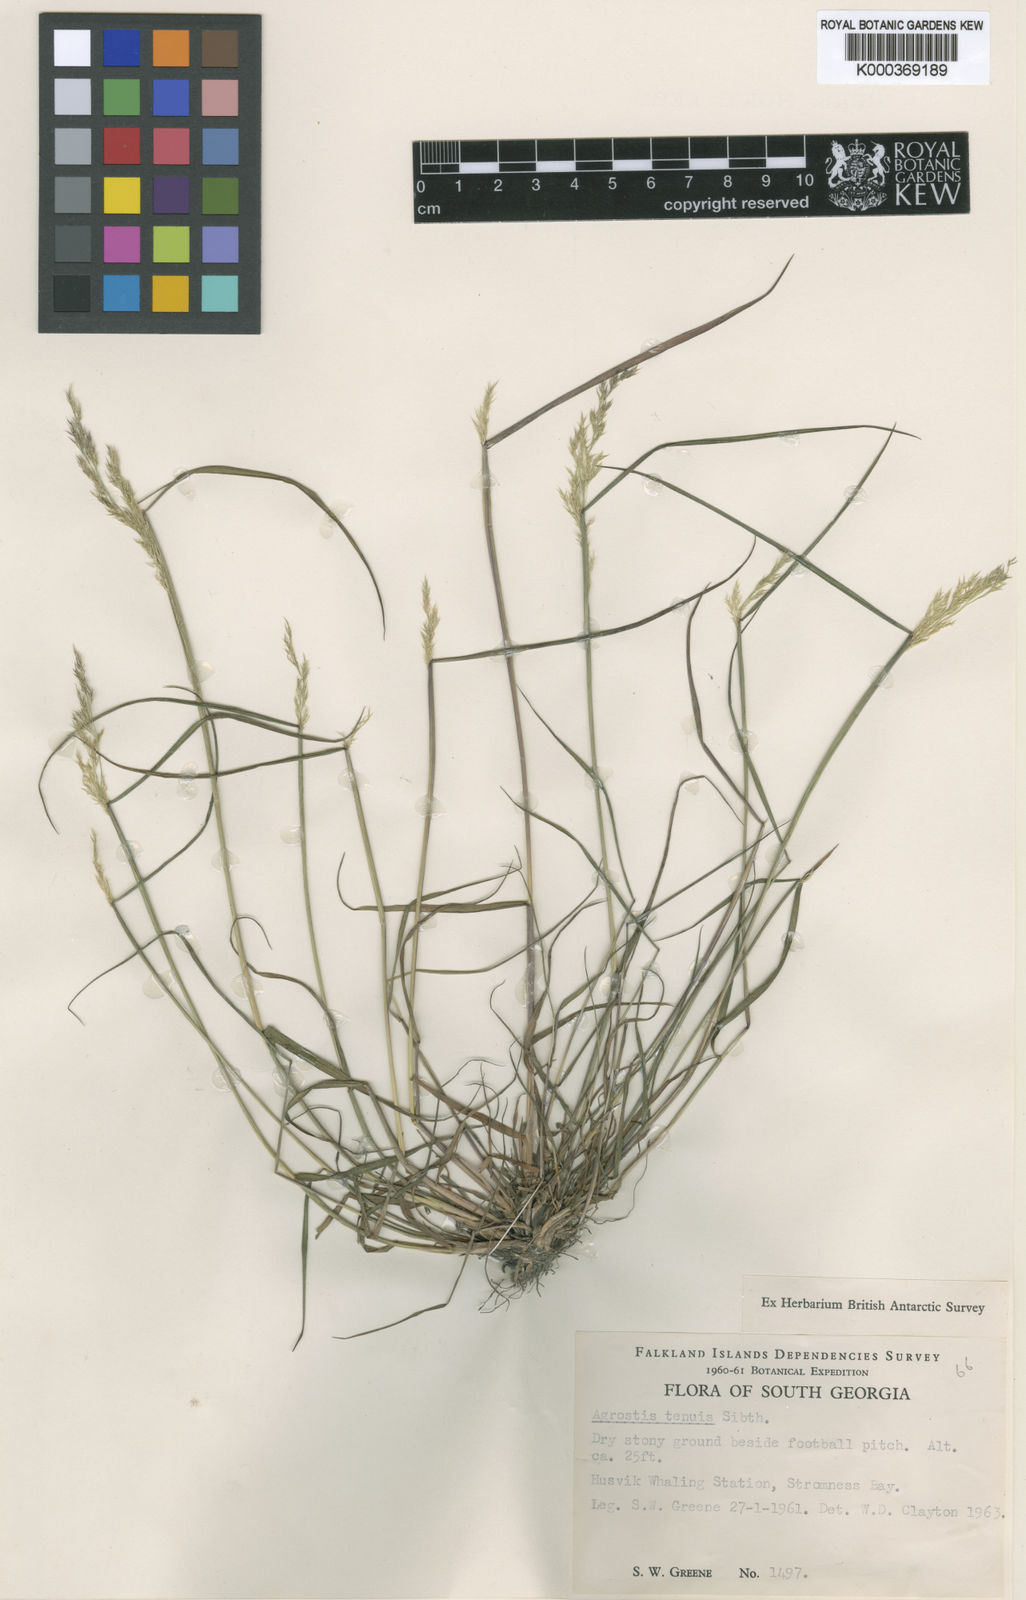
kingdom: Plantae
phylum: Tracheophyta
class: Liliopsida
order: Poales
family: Poaceae
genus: Agrostis
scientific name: Agrostis capillaris
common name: Colonial bentgrass
